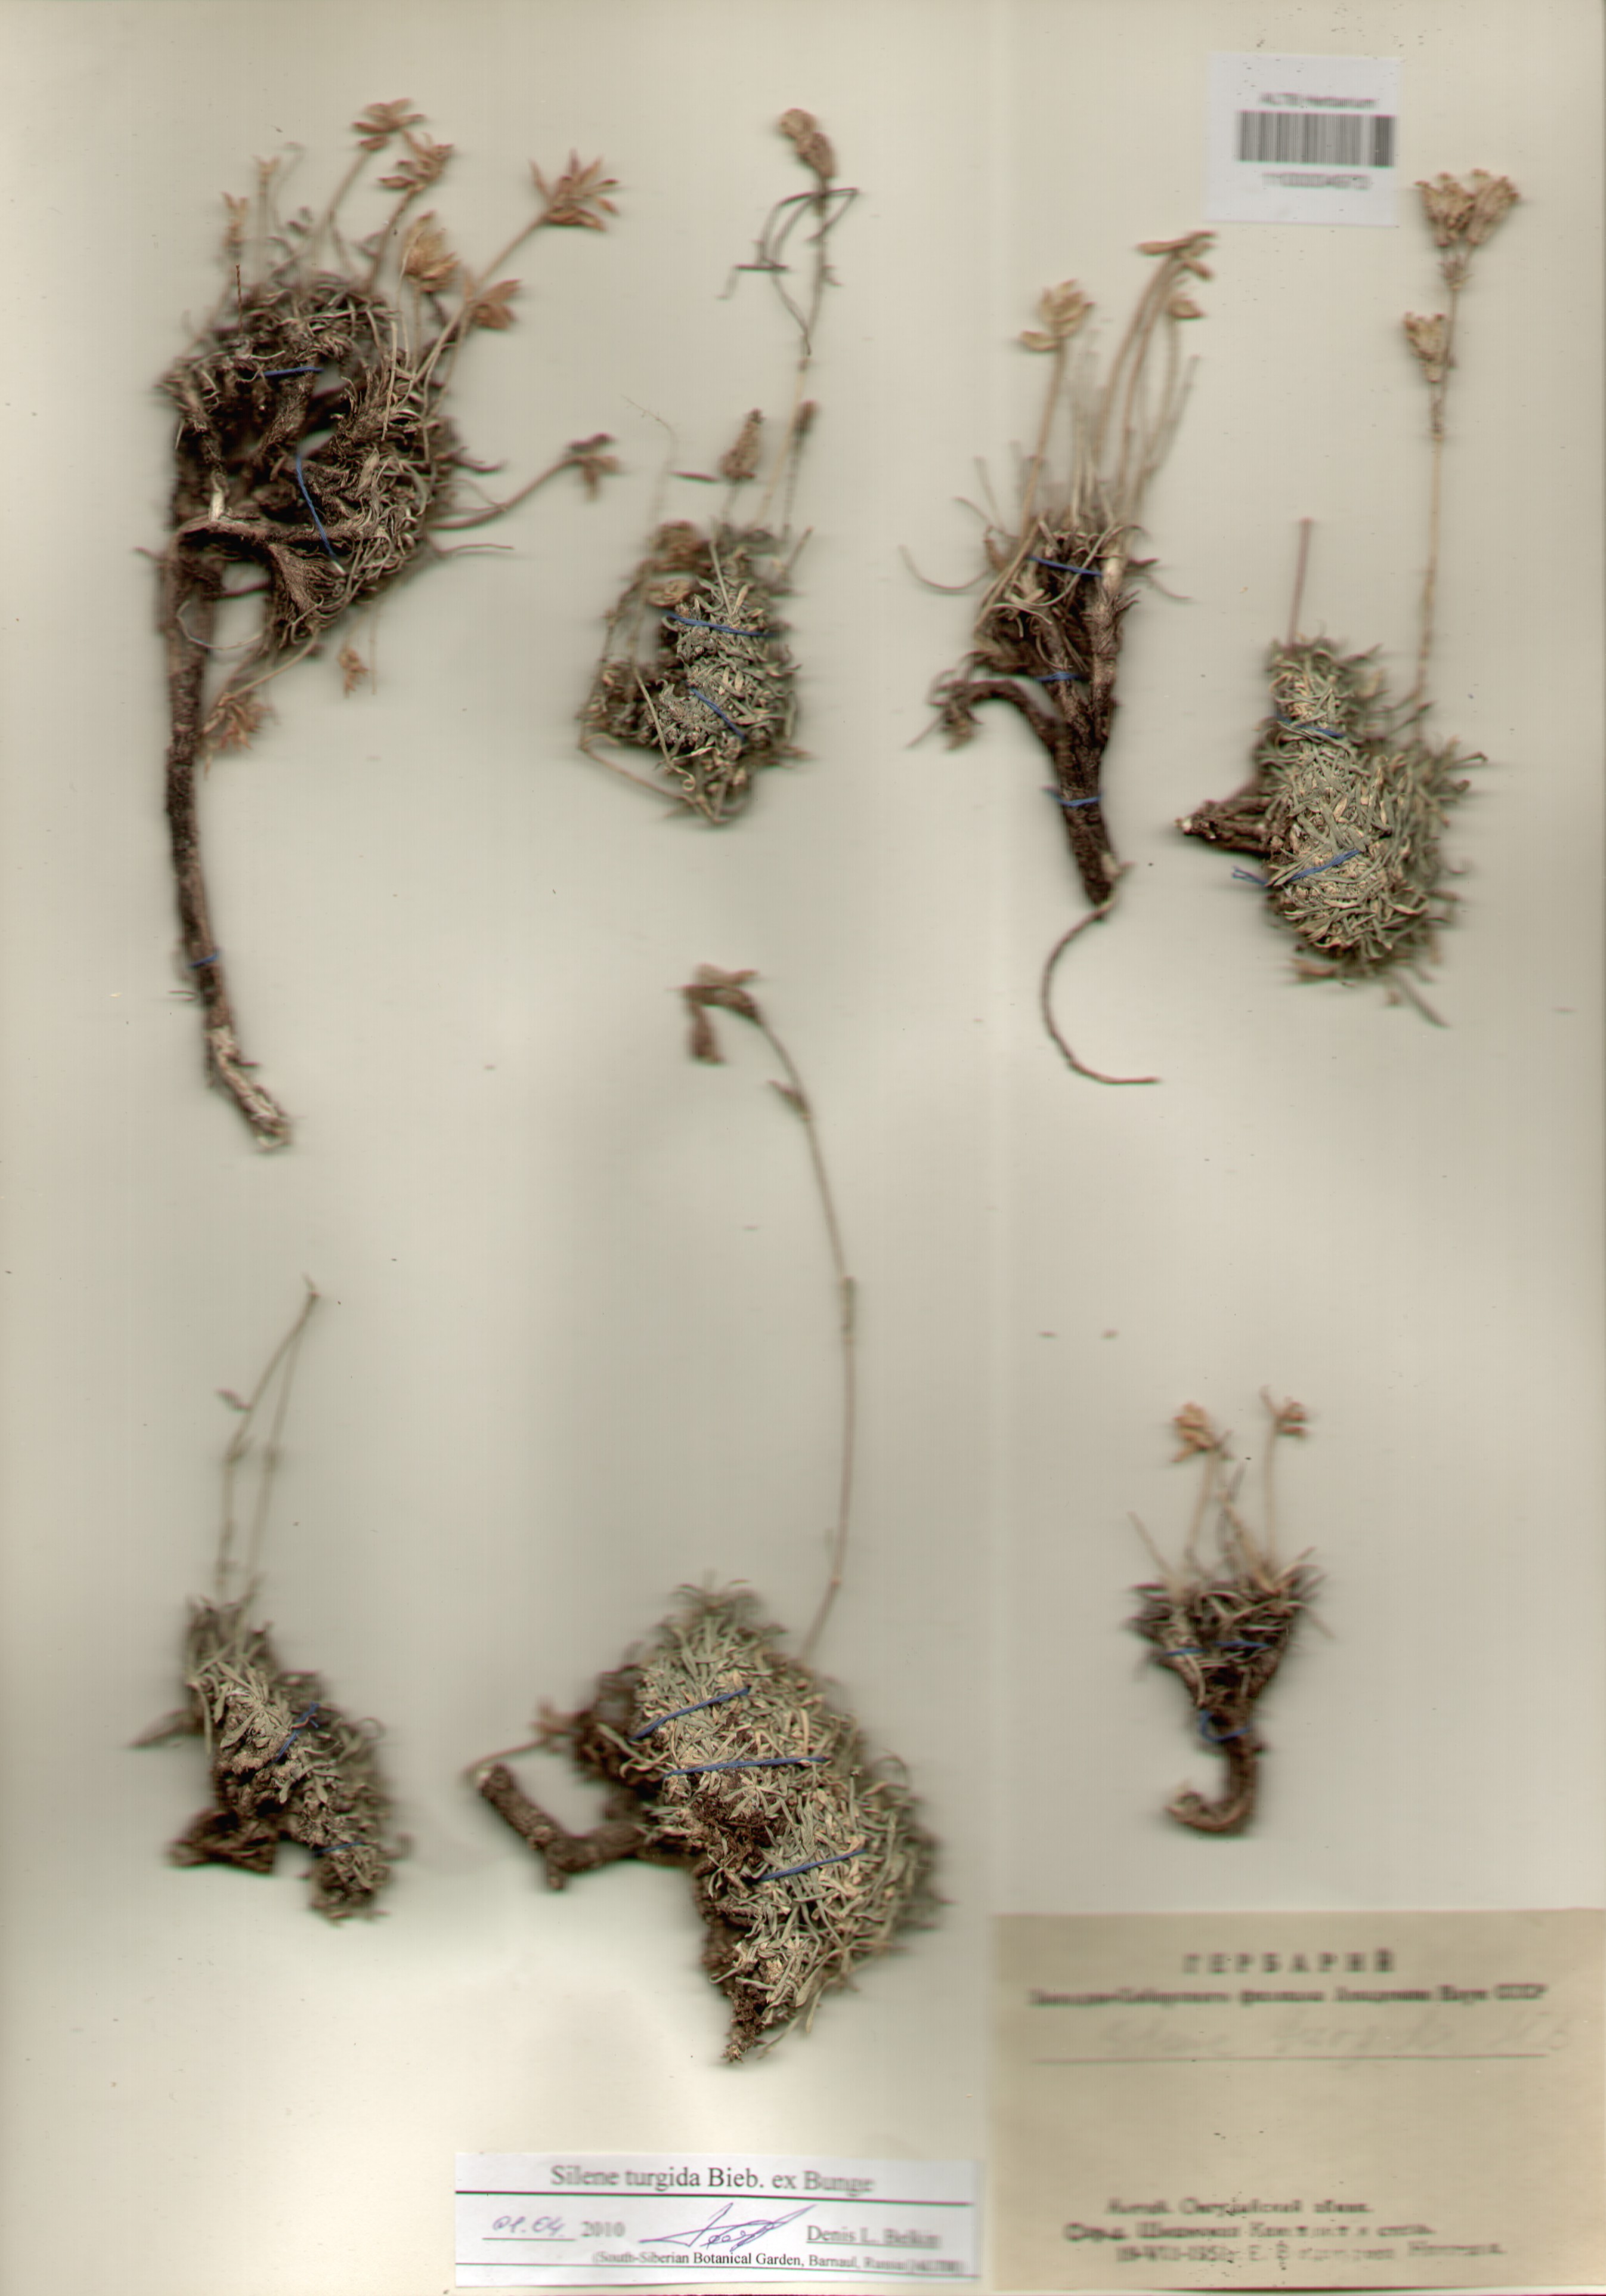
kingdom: Plantae
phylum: Tracheophyta
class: Magnoliopsida
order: Caryophyllales
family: Caryophyllaceae
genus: Silene
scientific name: Silene turgida
